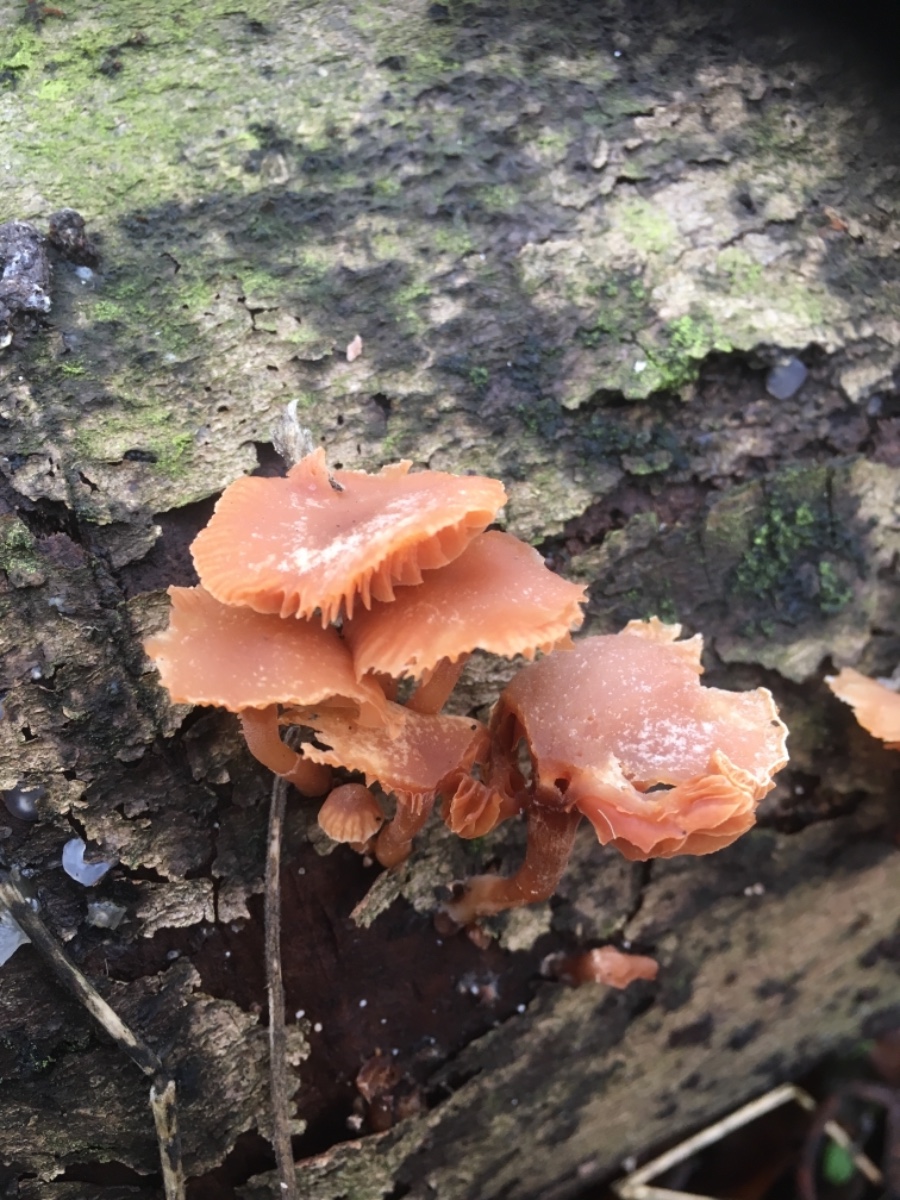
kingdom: Fungi
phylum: Basidiomycota
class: Agaricomycetes
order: Agaricales
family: Tubariaceae
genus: Tubaria
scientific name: Tubaria furfuracea
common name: kliddet fnughat
